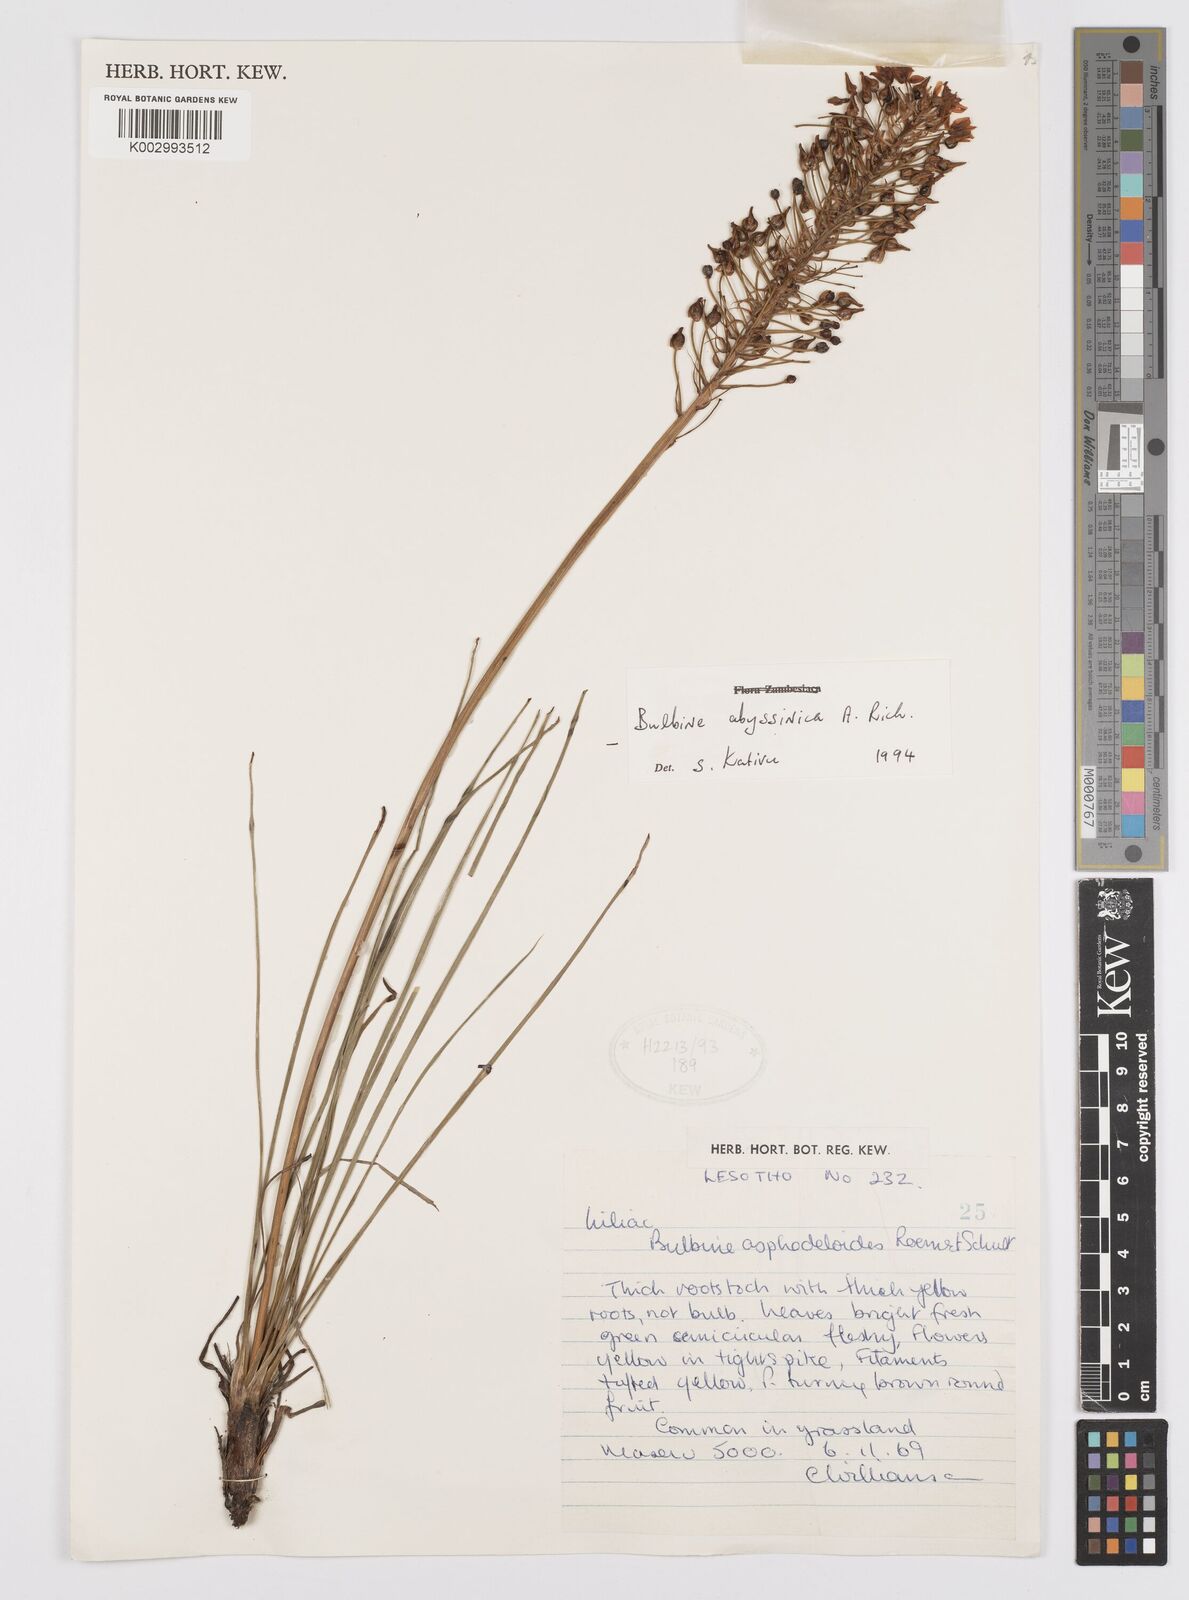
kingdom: Plantae
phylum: Tracheophyta
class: Liliopsida
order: Asparagales
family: Asphodelaceae
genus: Bulbine
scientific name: Bulbine abyssinica
